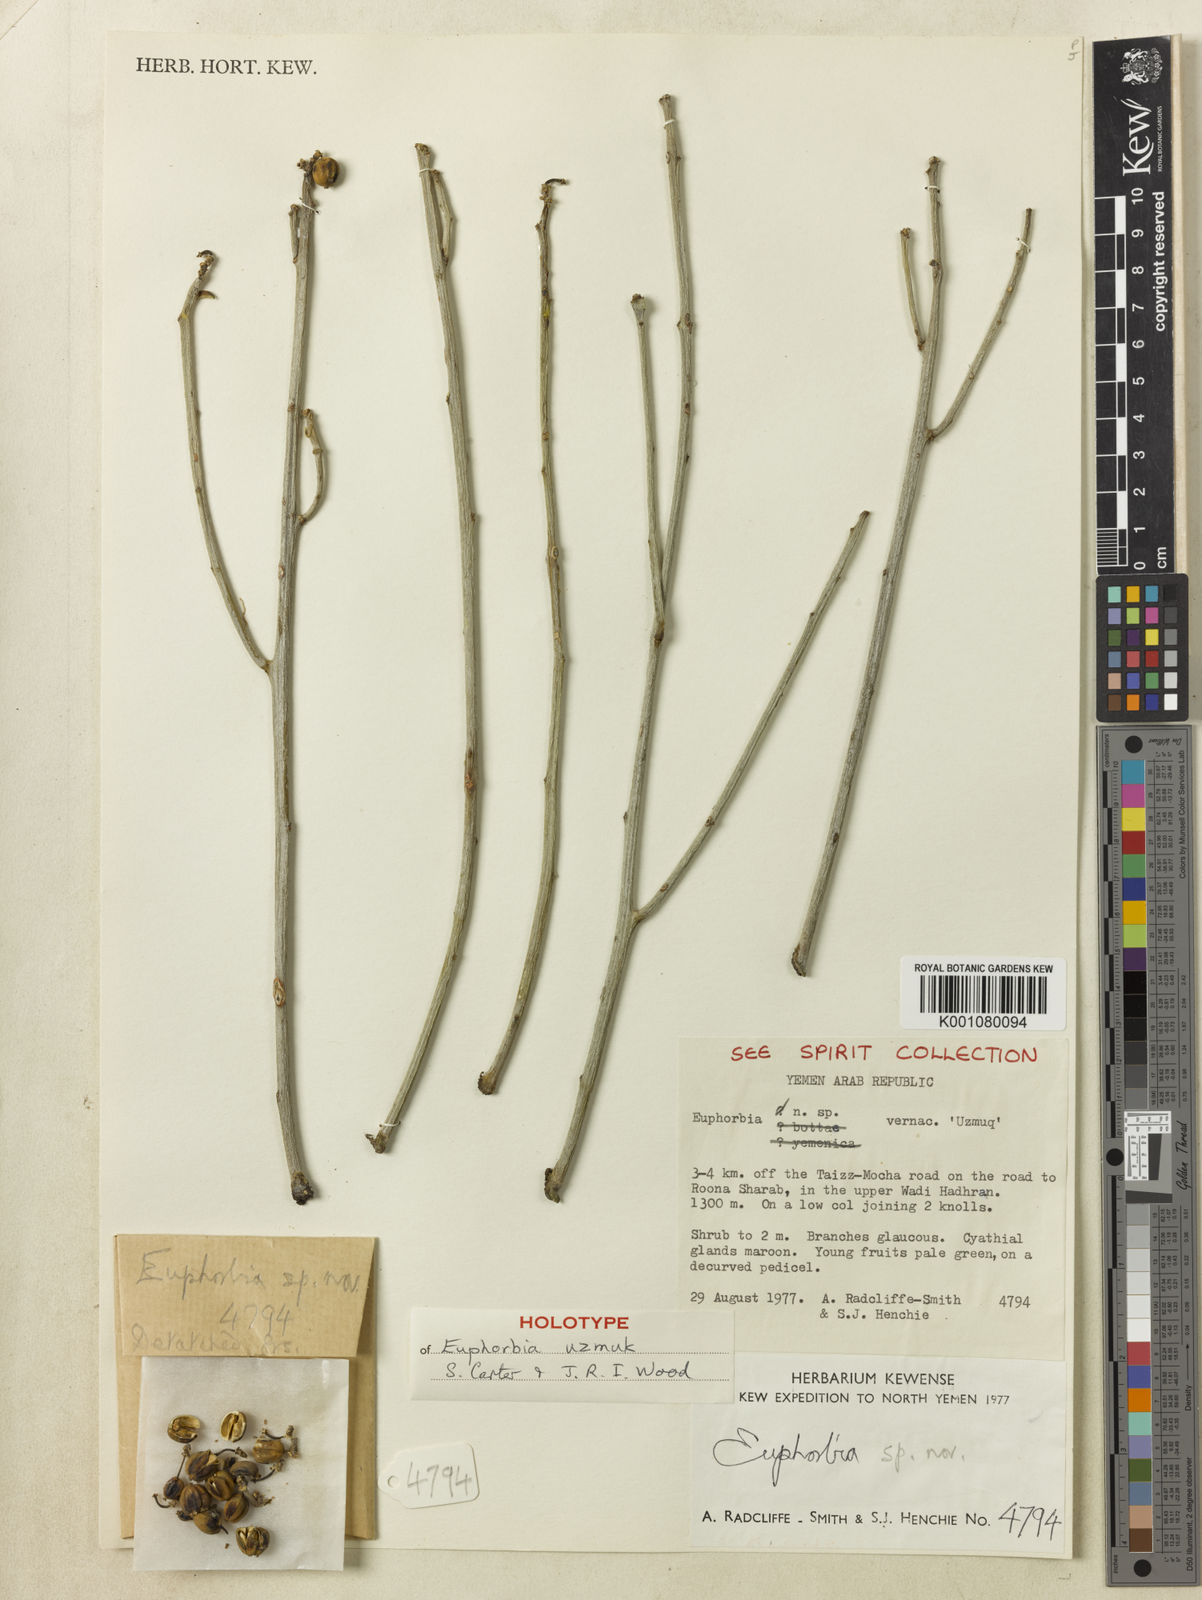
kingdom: Plantae
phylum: Tracheophyta
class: Magnoliopsida
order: Malpighiales
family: Euphorbiaceae
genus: Euphorbia
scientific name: Euphorbia uzmuk
